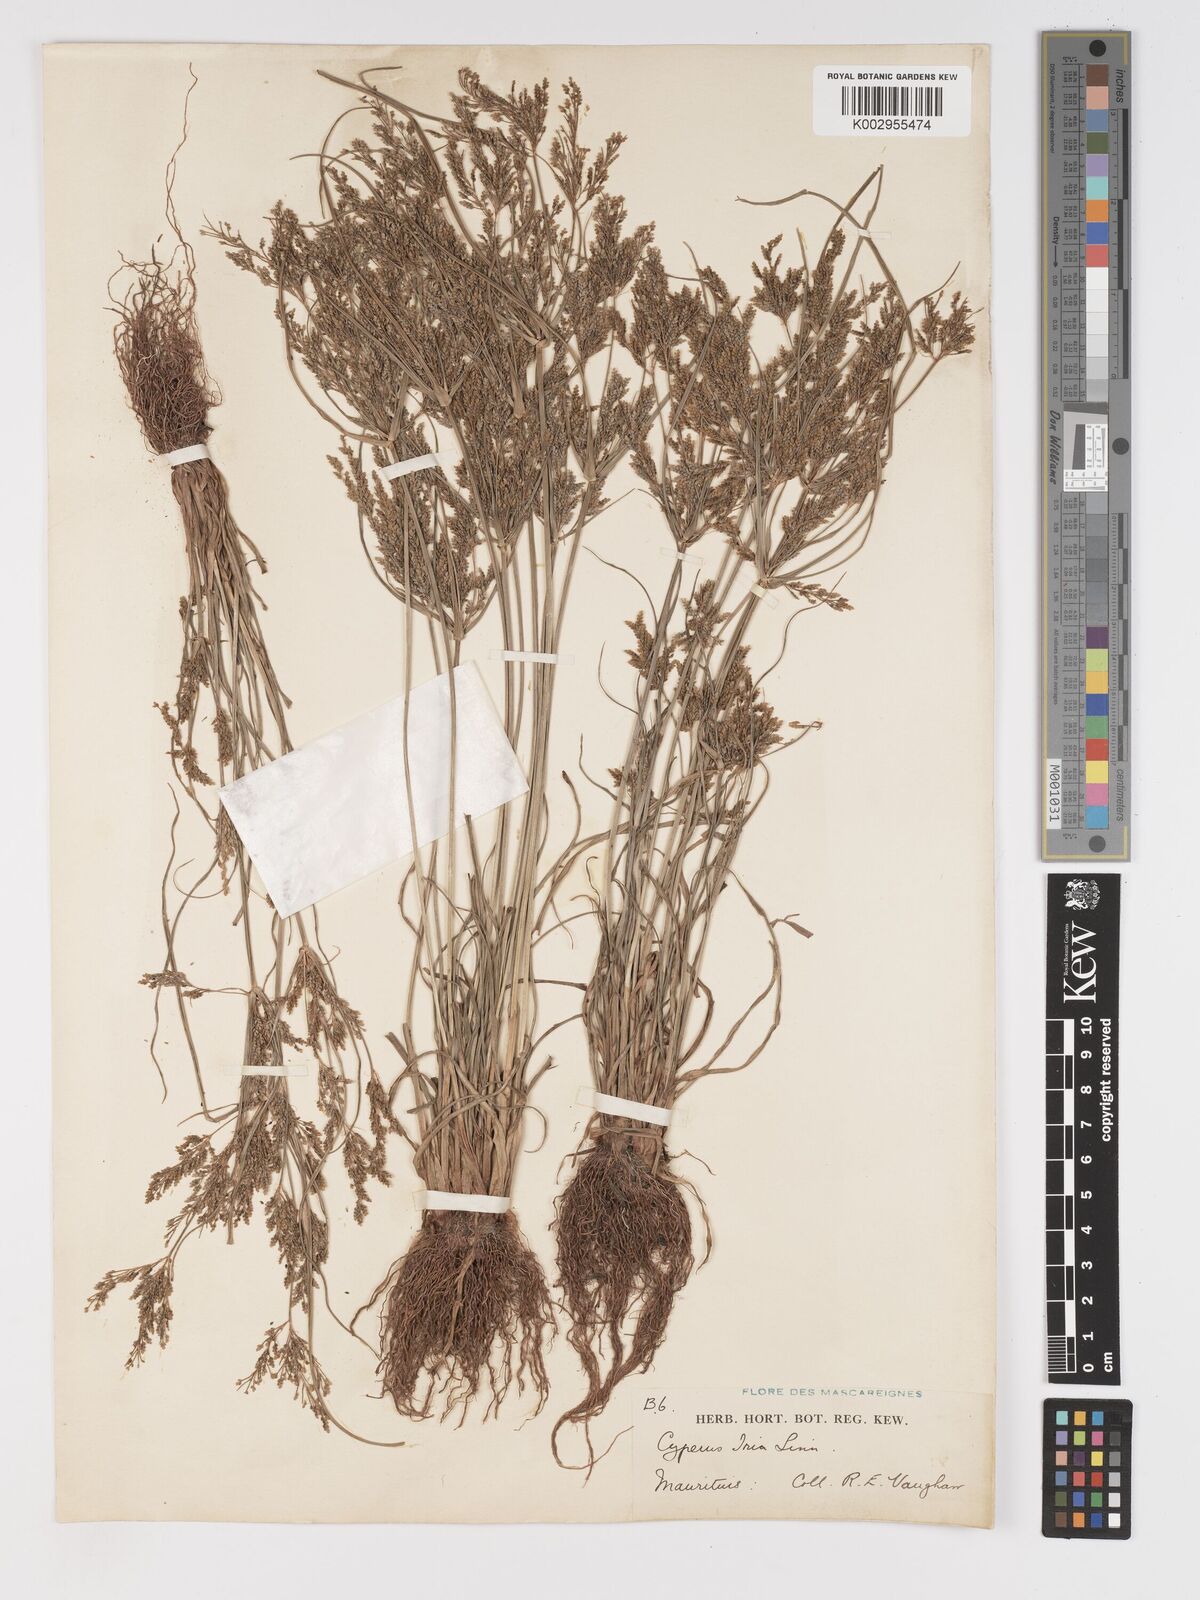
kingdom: Plantae
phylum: Tracheophyta
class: Liliopsida
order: Poales
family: Cyperaceae
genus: Cyperus
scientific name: Cyperus iria
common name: Ricefield flatsedge
